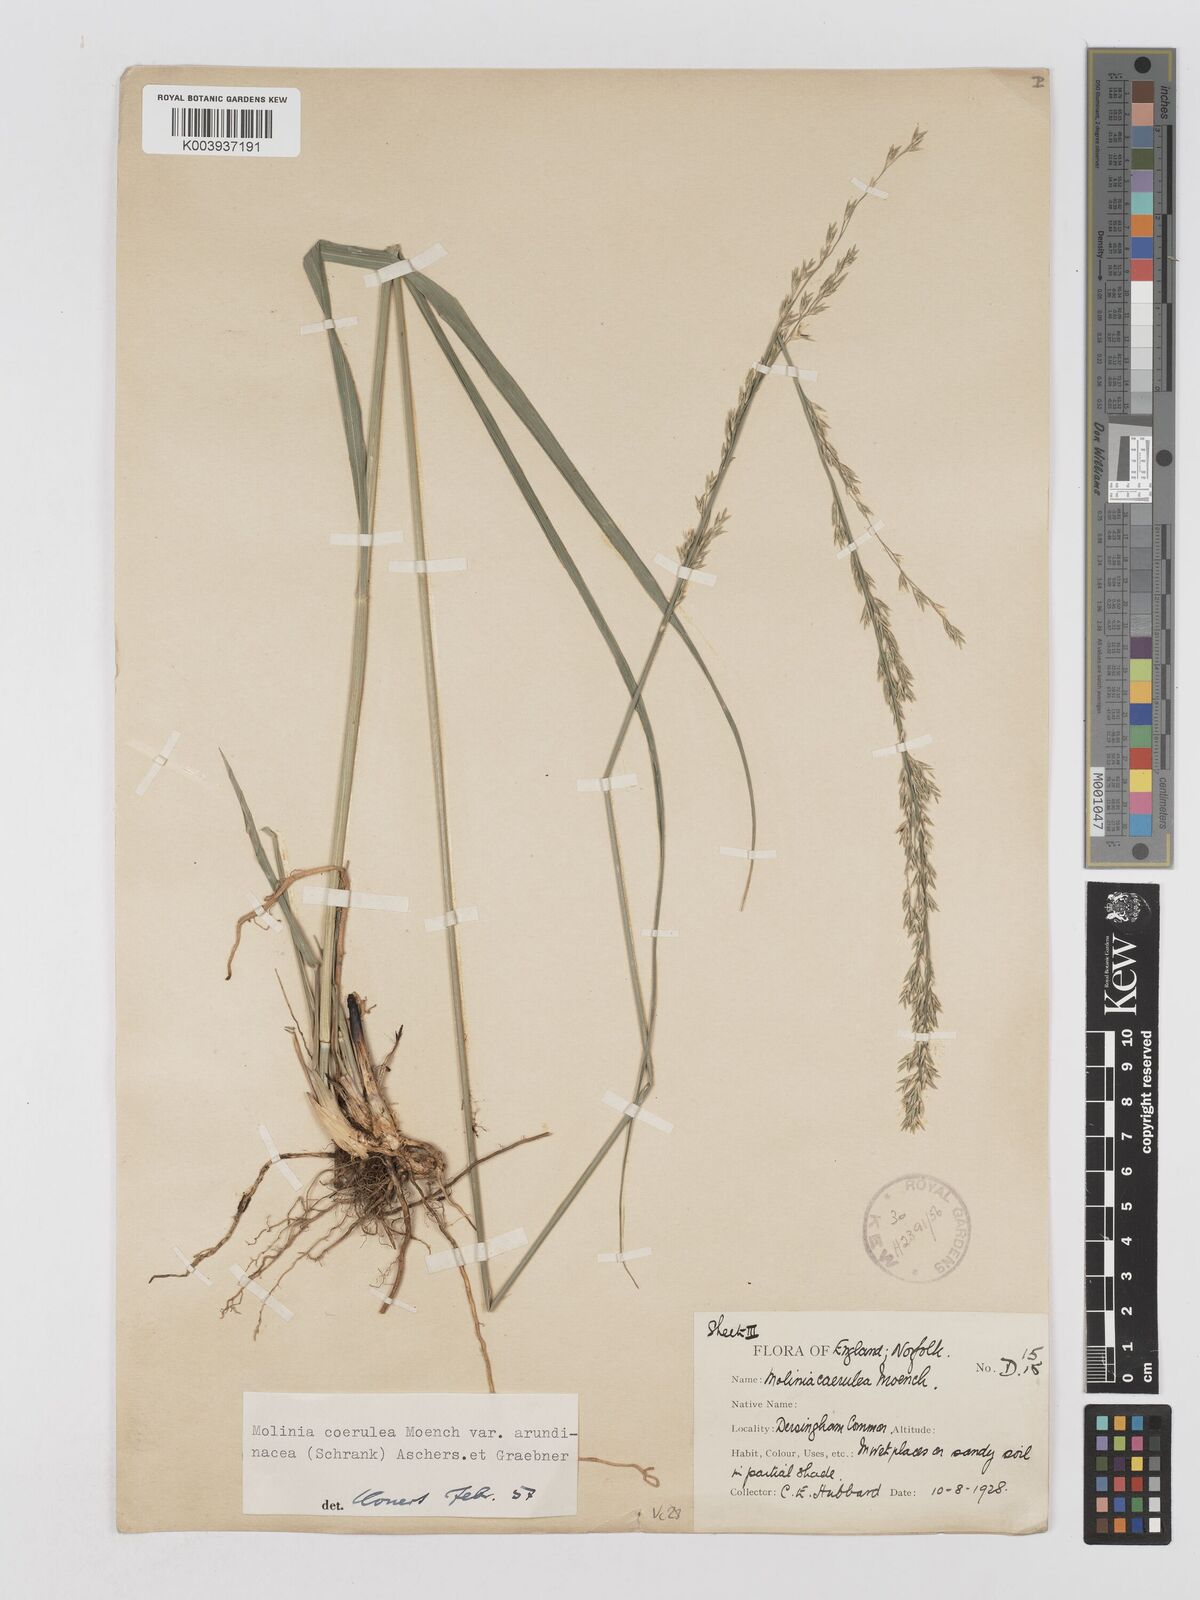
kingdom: Plantae
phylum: Tracheophyta
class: Liliopsida
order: Poales
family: Poaceae
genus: Molinia
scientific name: Molinia caerulea
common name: Purple moor-grass
